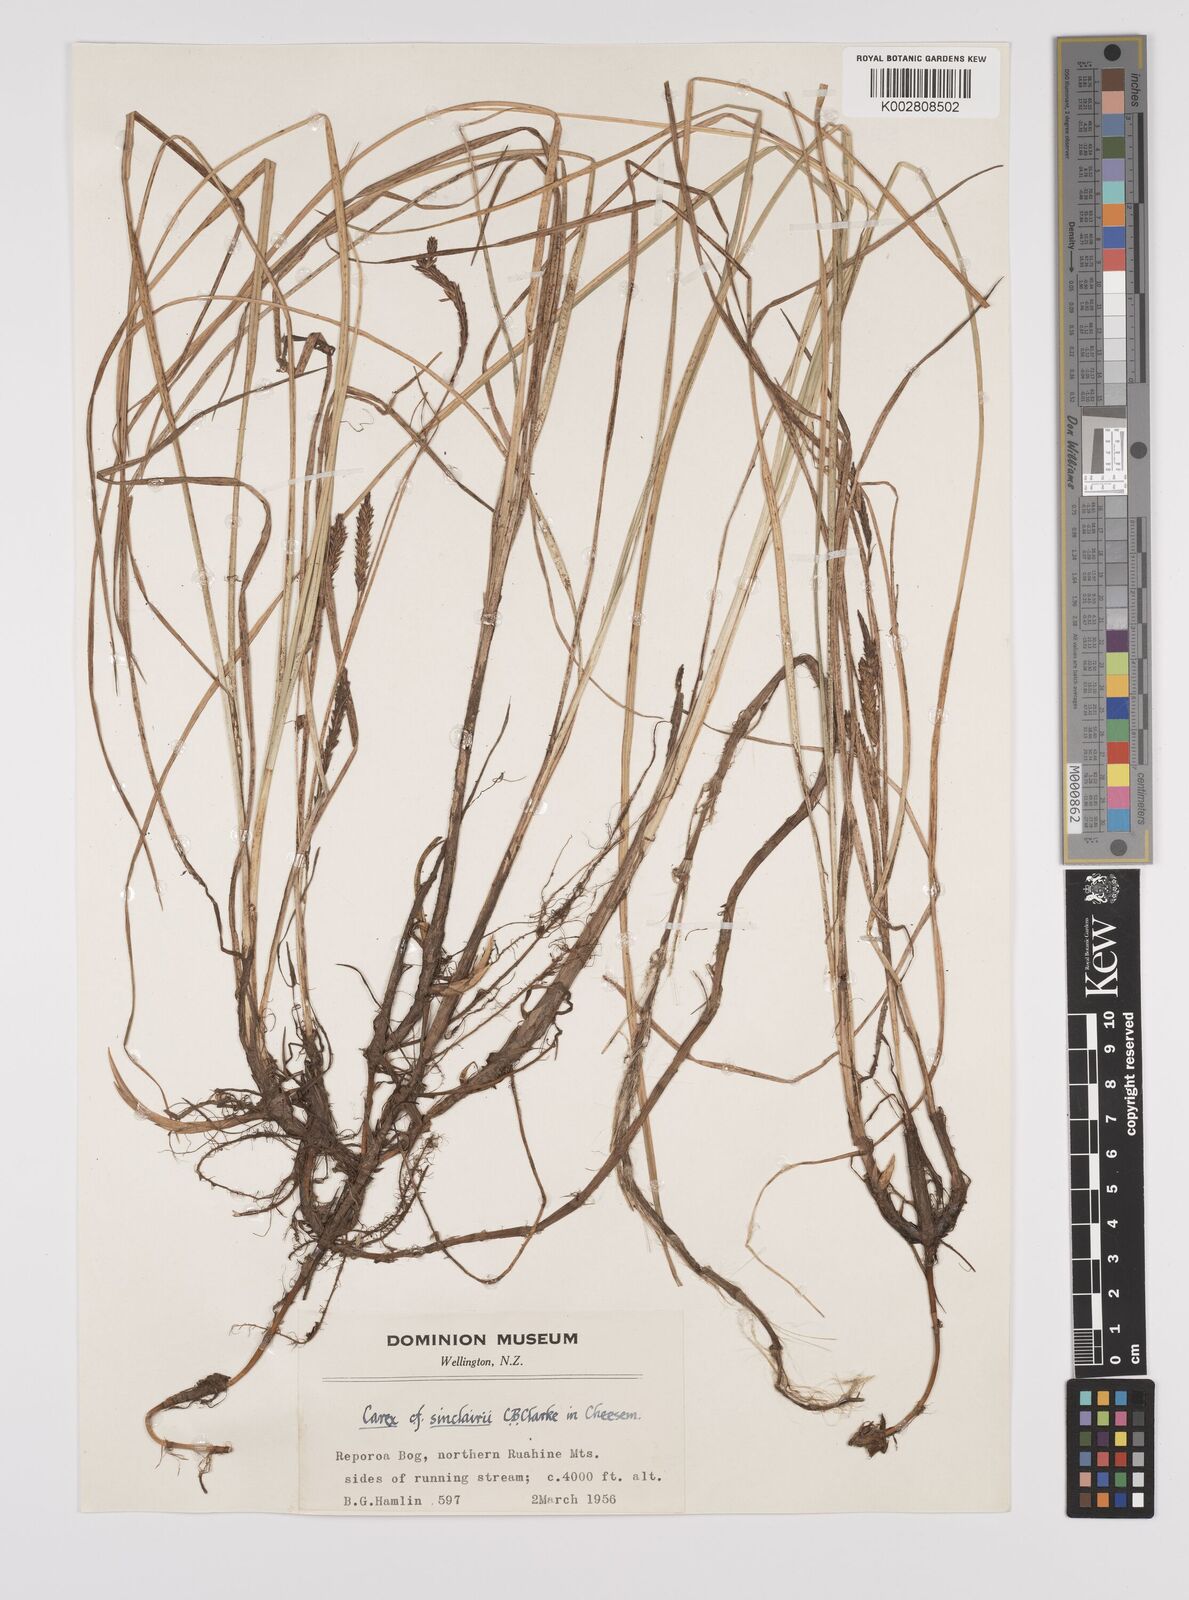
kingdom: Plantae
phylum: Tracheophyta
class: Liliopsida
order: Poales
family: Cyperaceae
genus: Carex
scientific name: Carex sinclairii
